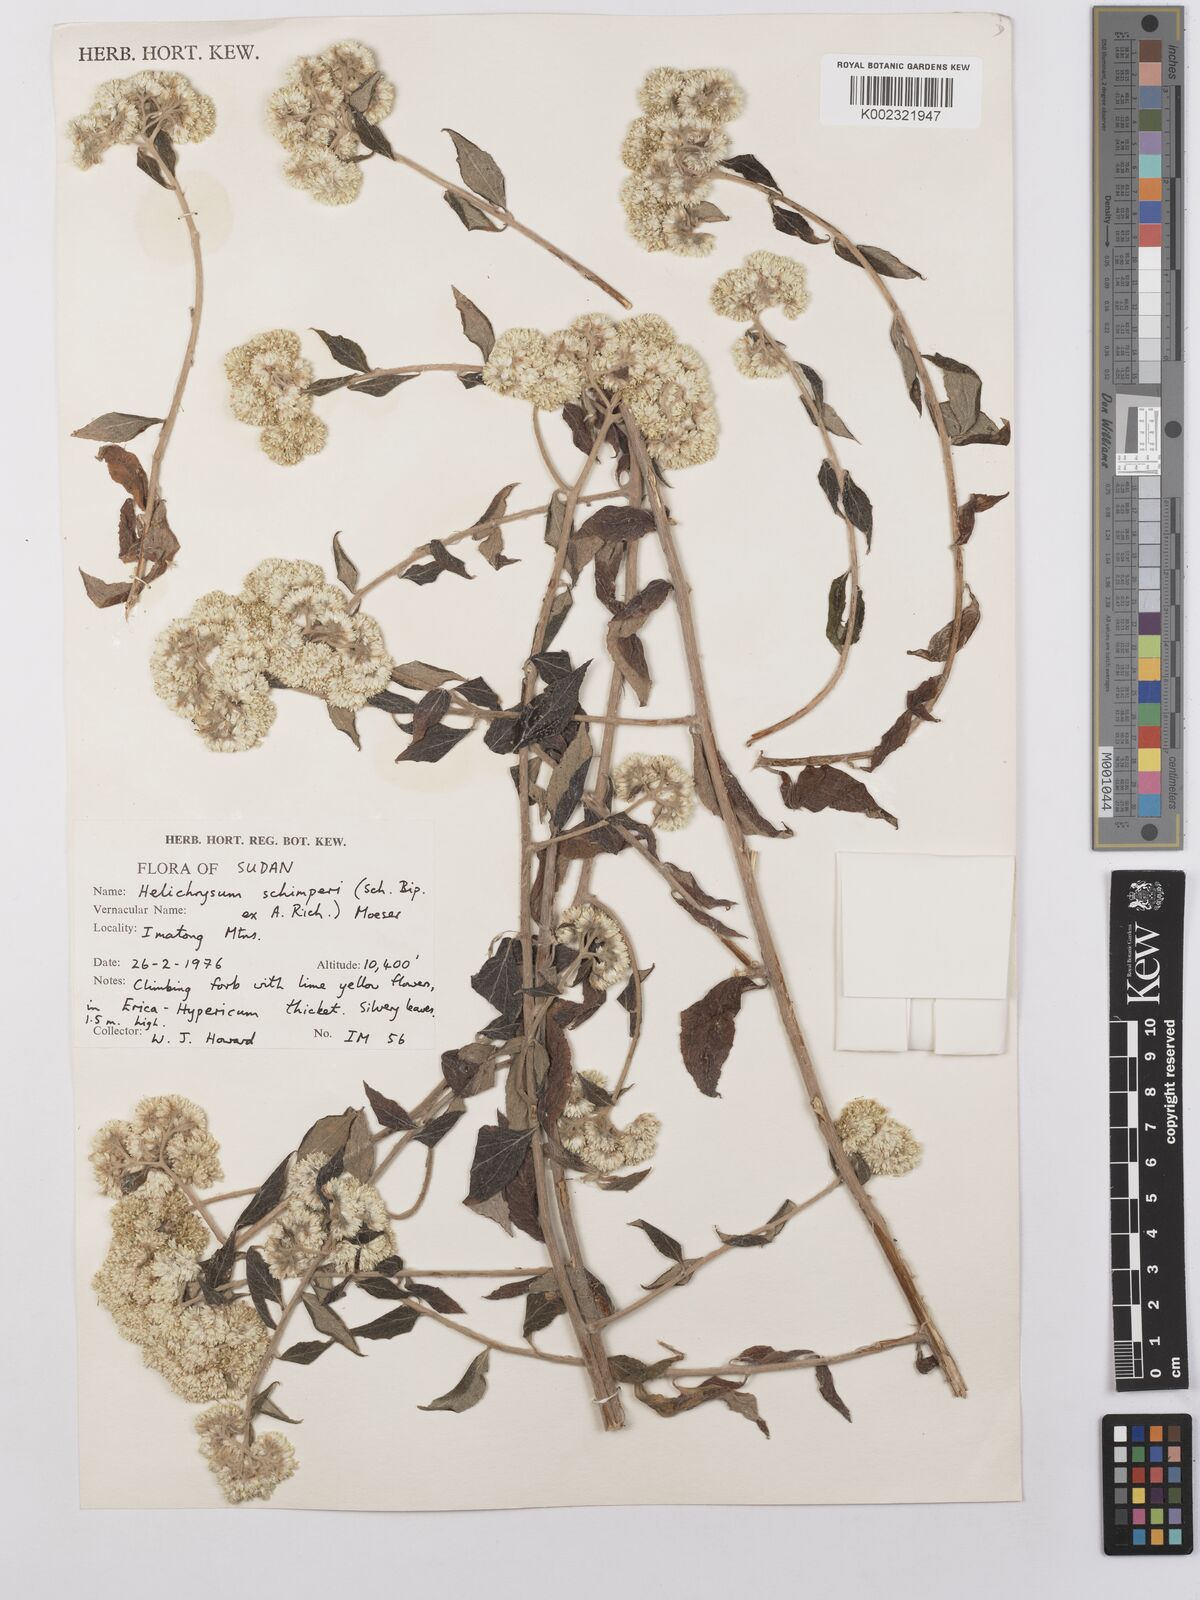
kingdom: Plantae
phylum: Tracheophyta
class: Magnoliopsida
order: Asterales
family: Asteraceae
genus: Helichrysum
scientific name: Helichrysum schimperi
